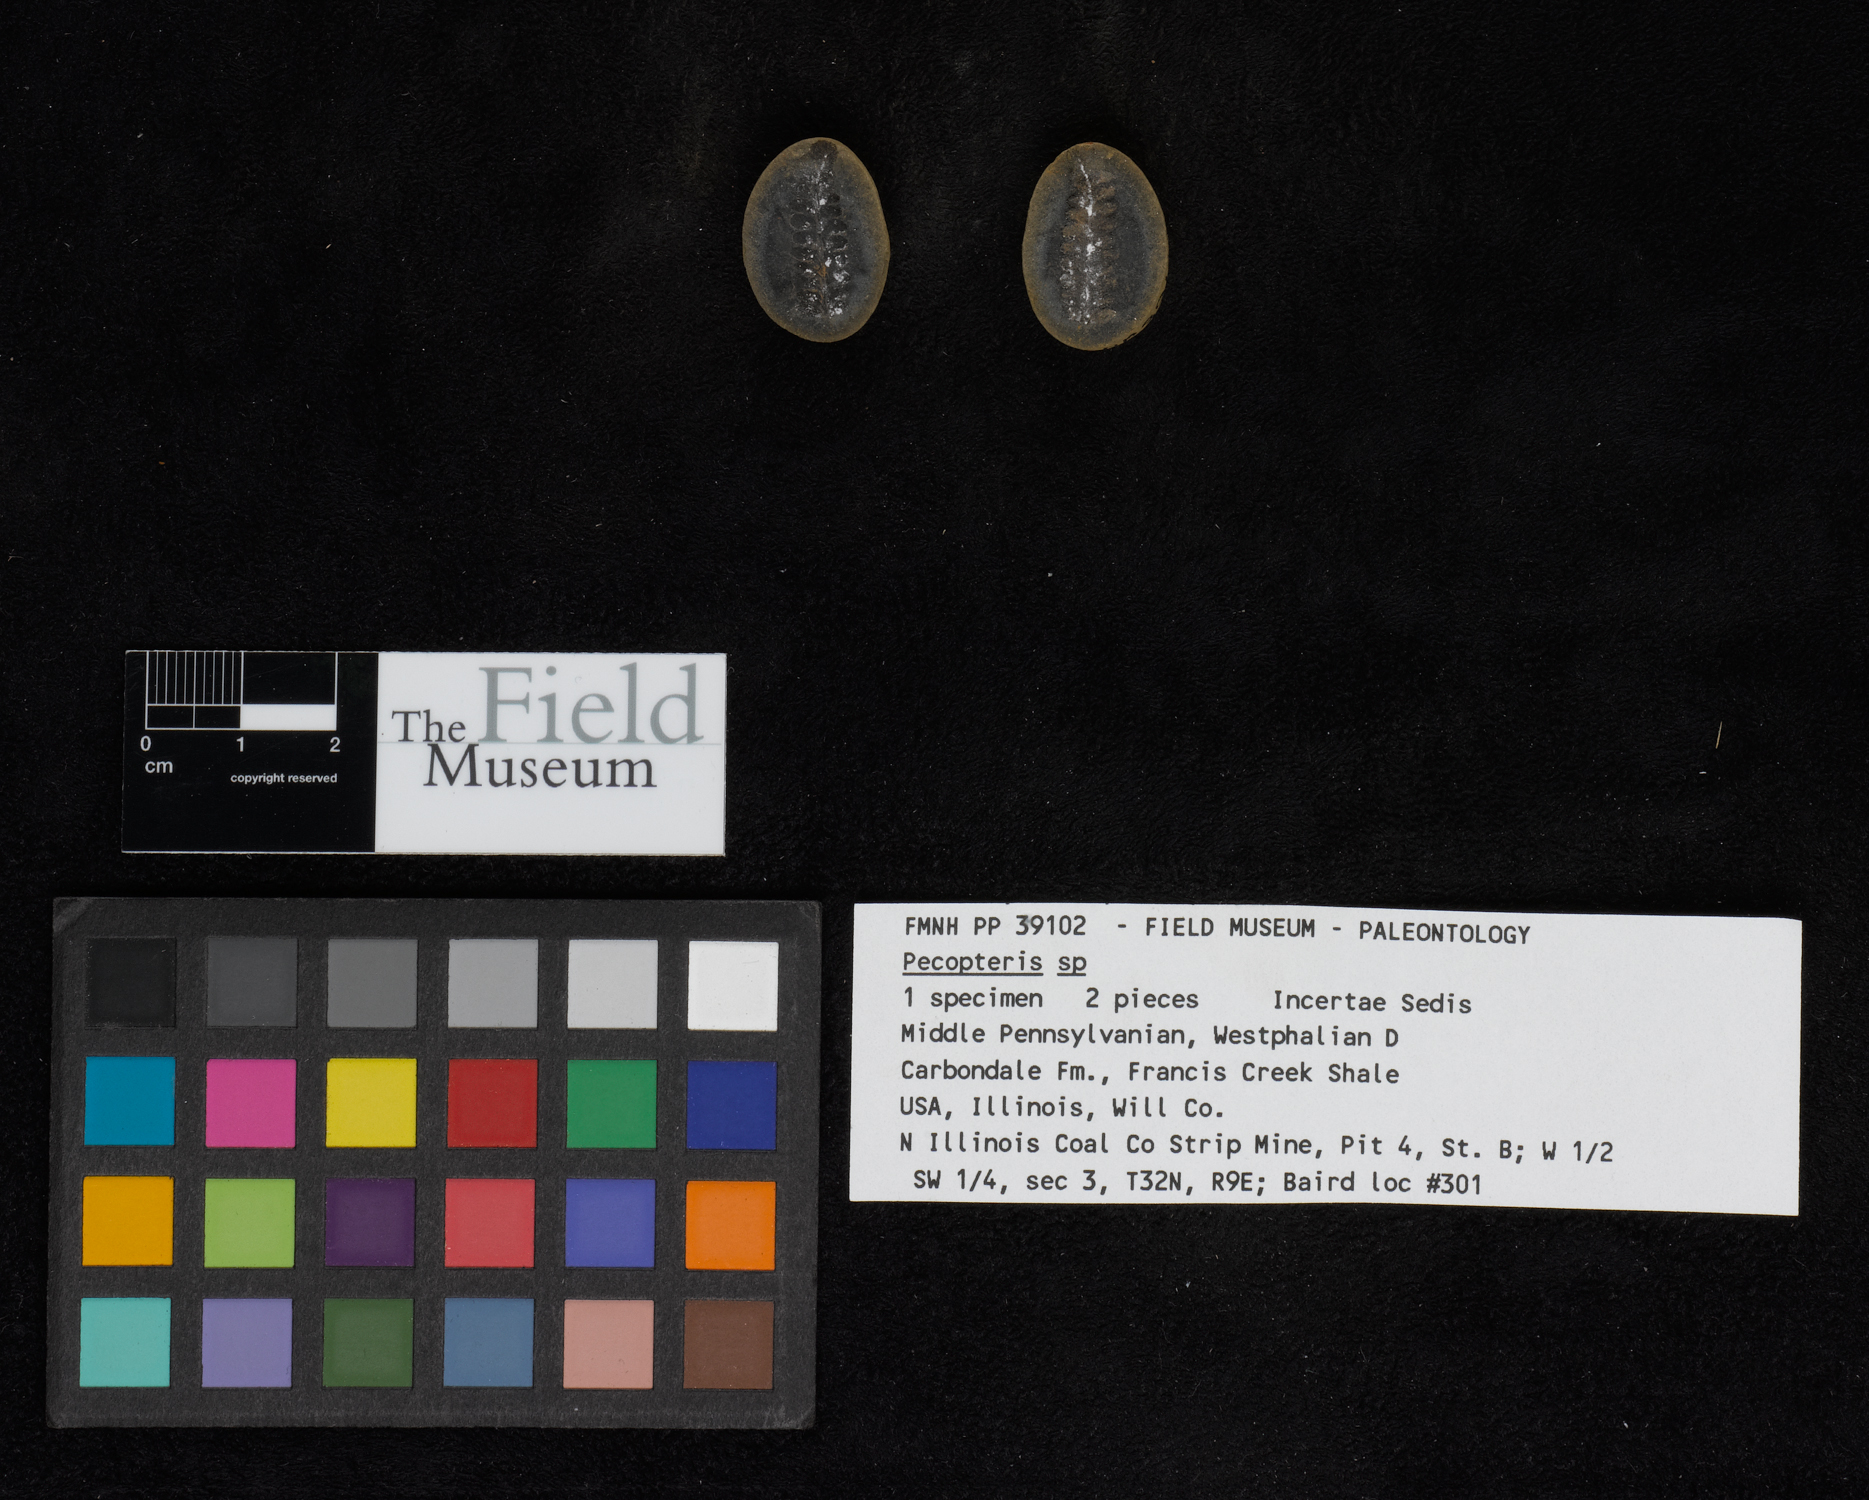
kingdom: Plantae
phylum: Tracheophyta
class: Polypodiopsida
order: Marattiales
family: Asterothecaceae
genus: Pecopteris
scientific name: Pecopteris
